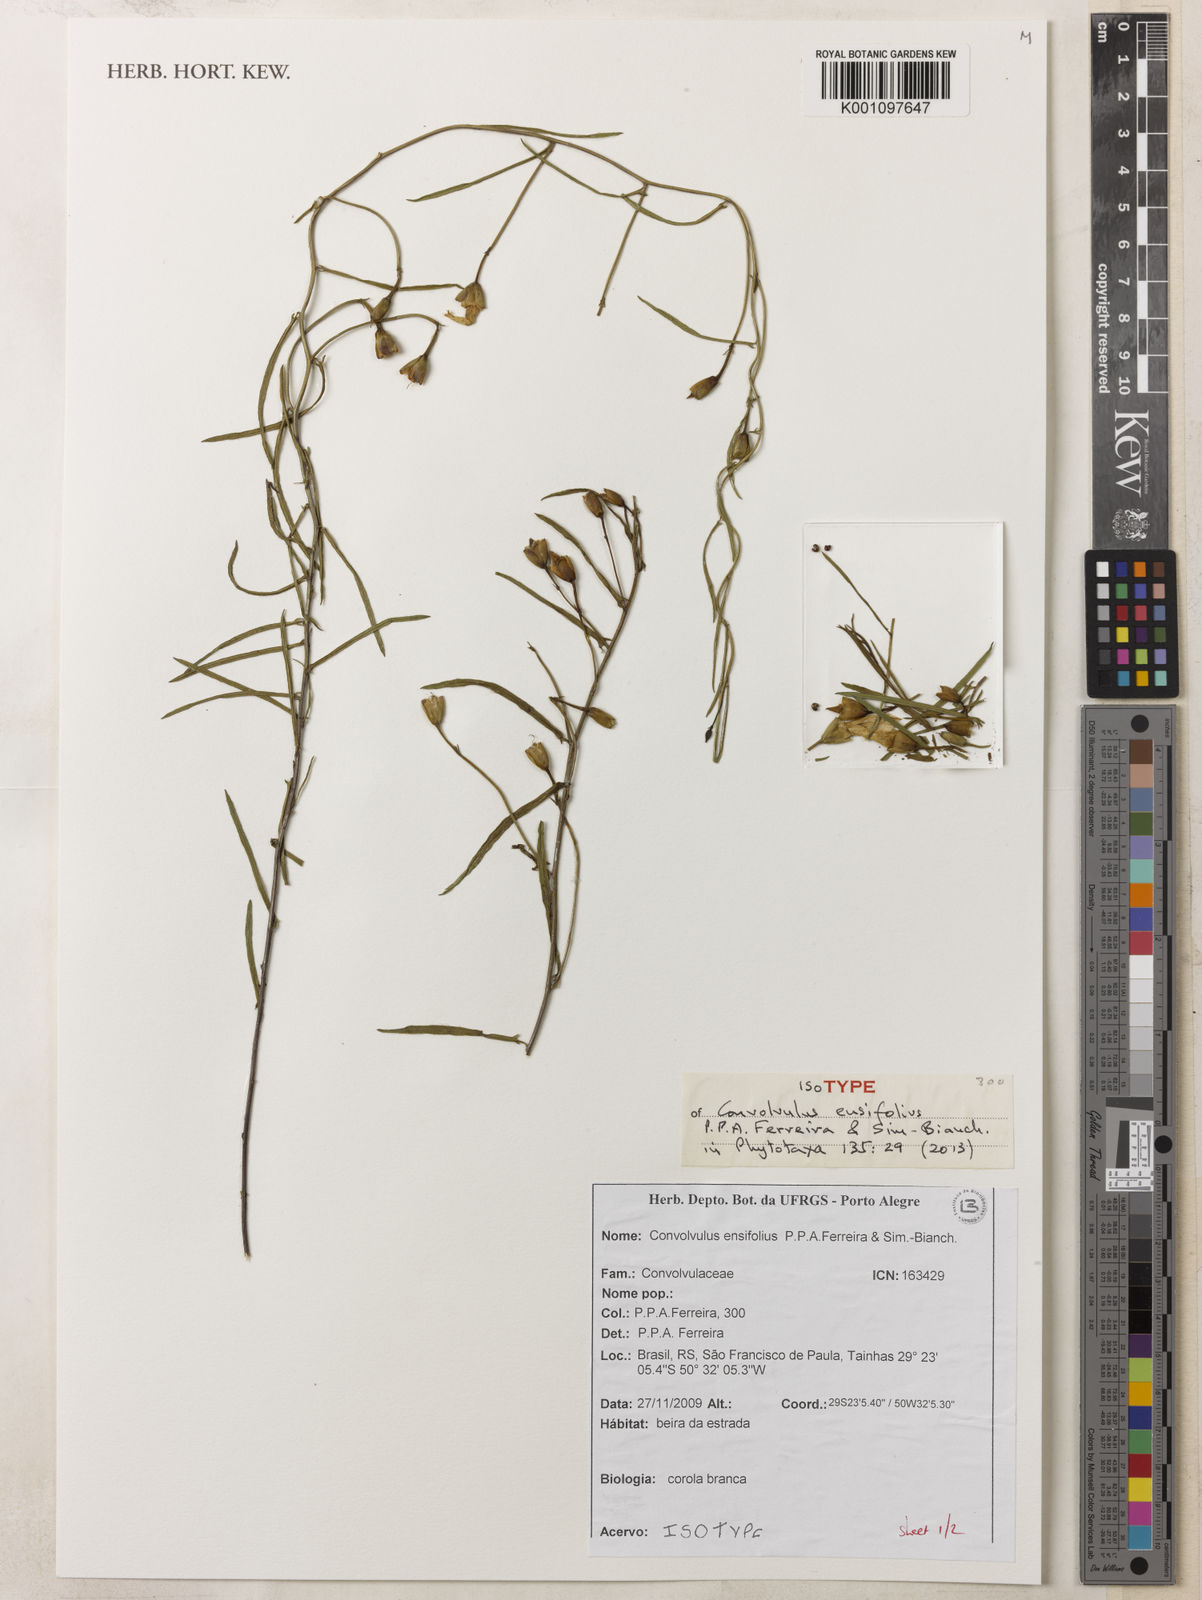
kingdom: Plantae
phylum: Tracheophyta
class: Magnoliopsida
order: Solanales
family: Convolvulaceae
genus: Convolvulus
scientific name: Convolvulus ensifolius
